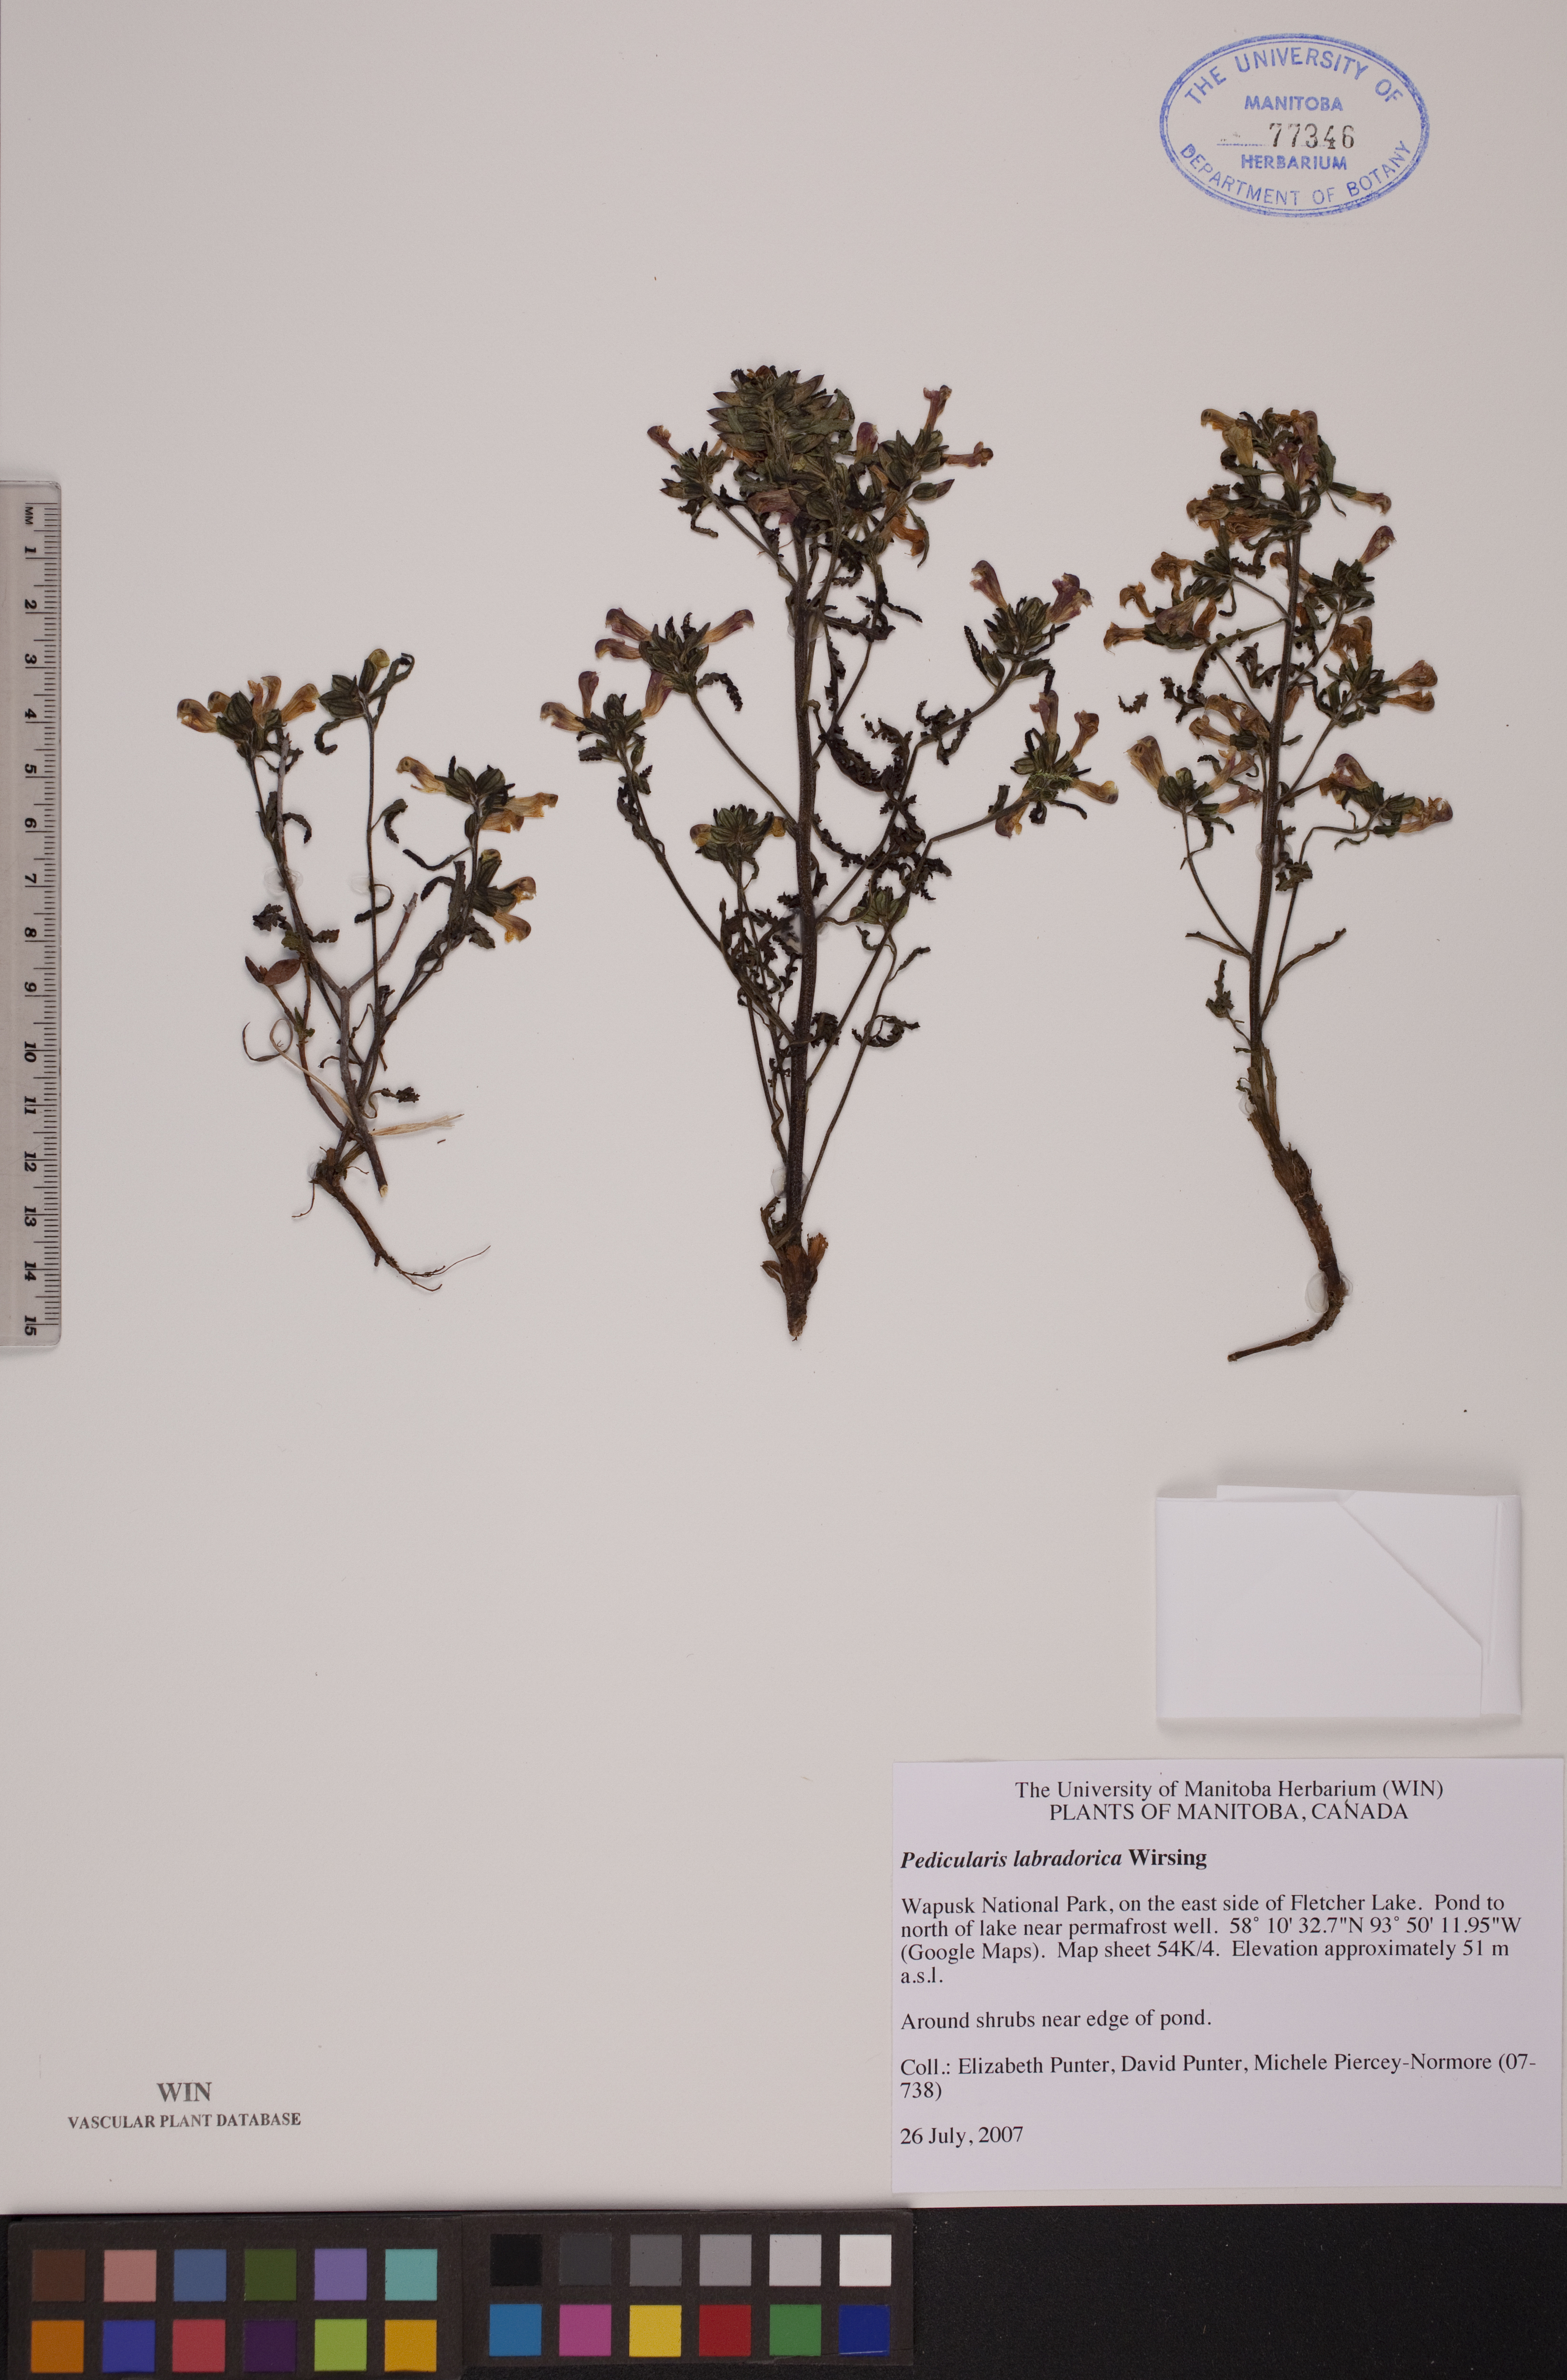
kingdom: Plantae
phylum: Tracheophyta
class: Magnoliopsida
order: Lamiales
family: Orobanchaceae
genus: Pedicularis
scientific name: Pedicularis labradorica
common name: Labrador lousewort
